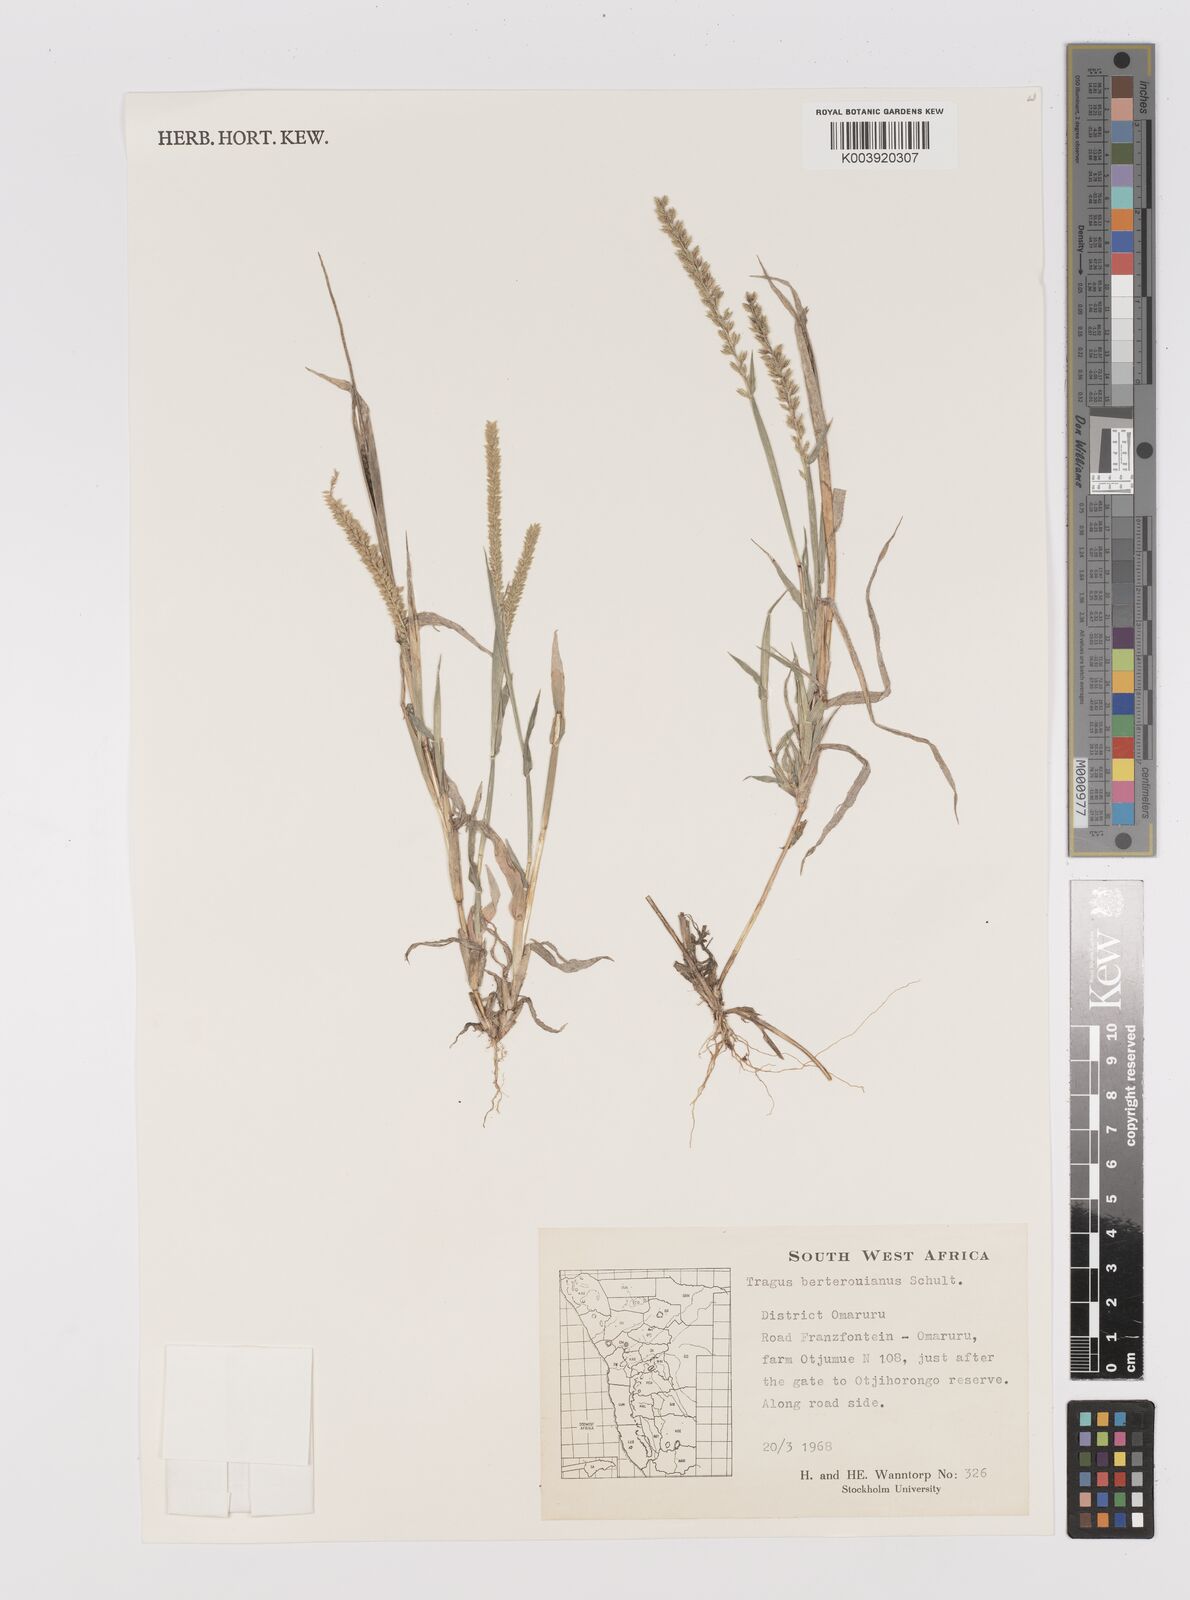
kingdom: Plantae
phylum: Tracheophyta
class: Liliopsida
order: Poales
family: Poaceae
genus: Tragus
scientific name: Tragus berteronianus
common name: African bur-grass
